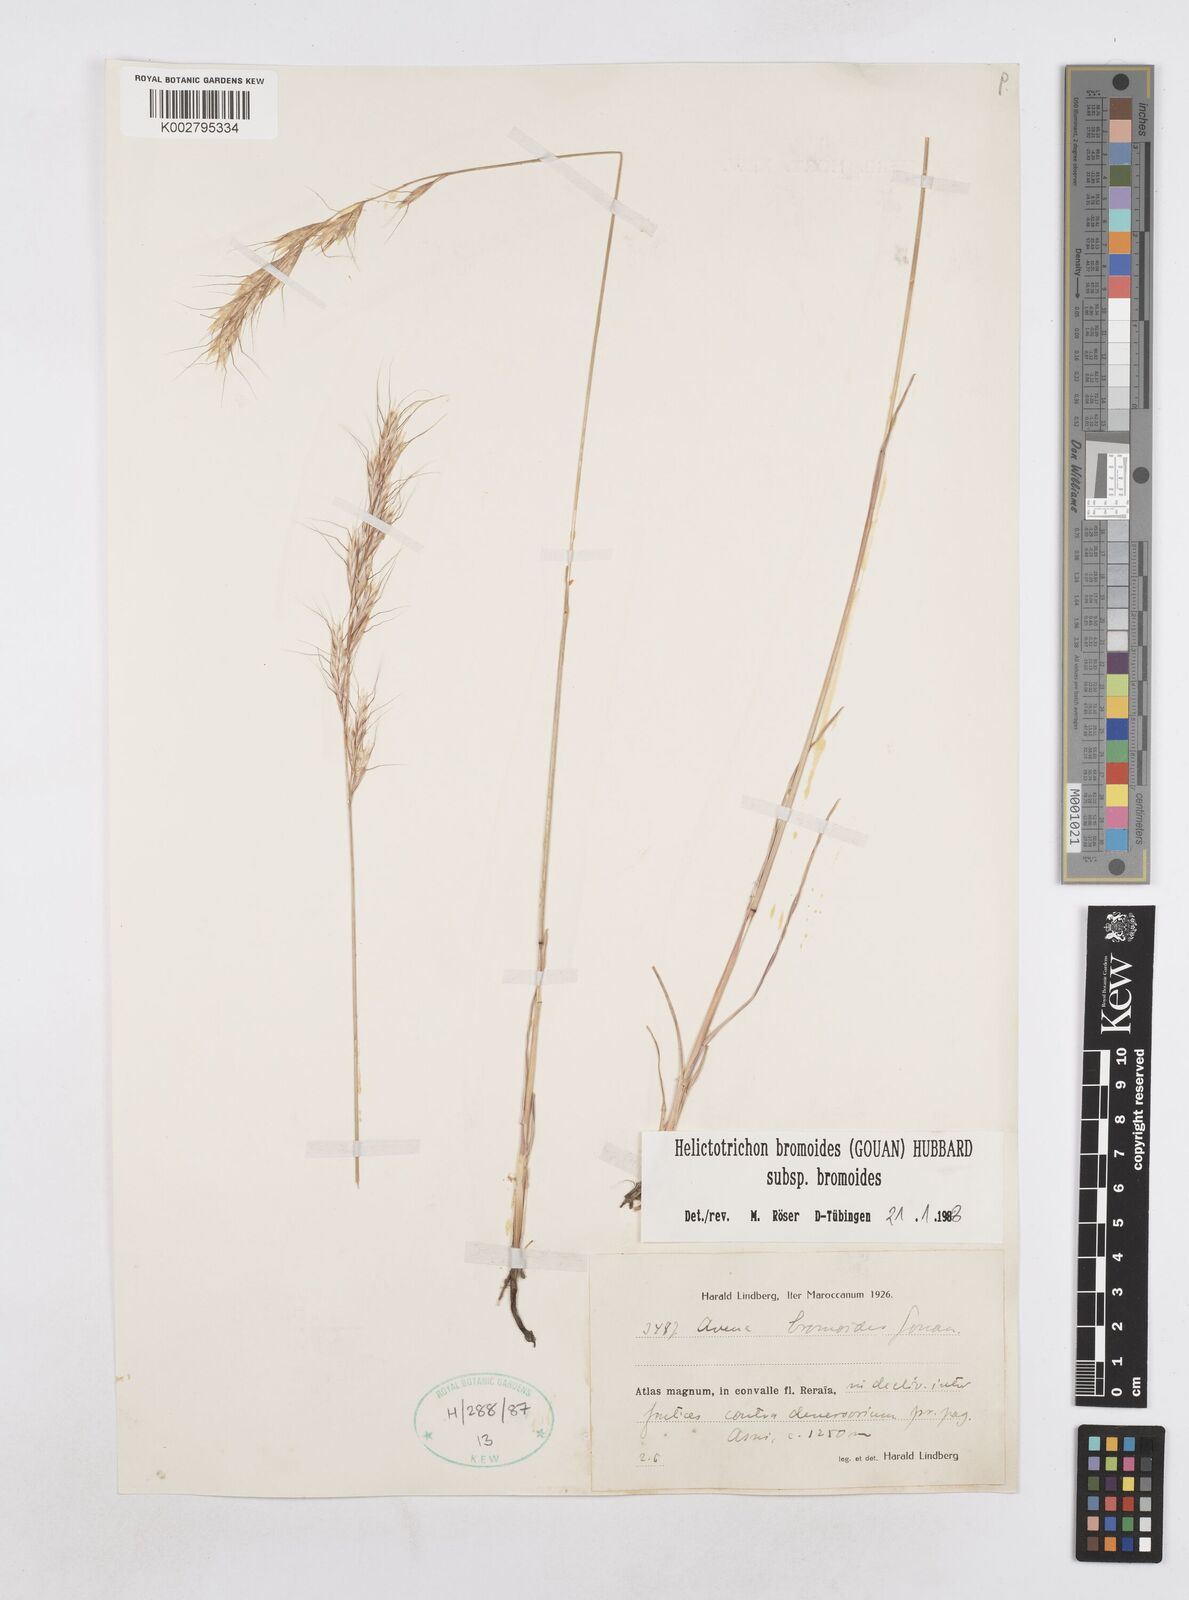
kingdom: Plantae
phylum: Tracheophyta
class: Liliopsida
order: Poales
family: Poaceae
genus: Helictochloa
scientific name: Helictochloa bromoides
